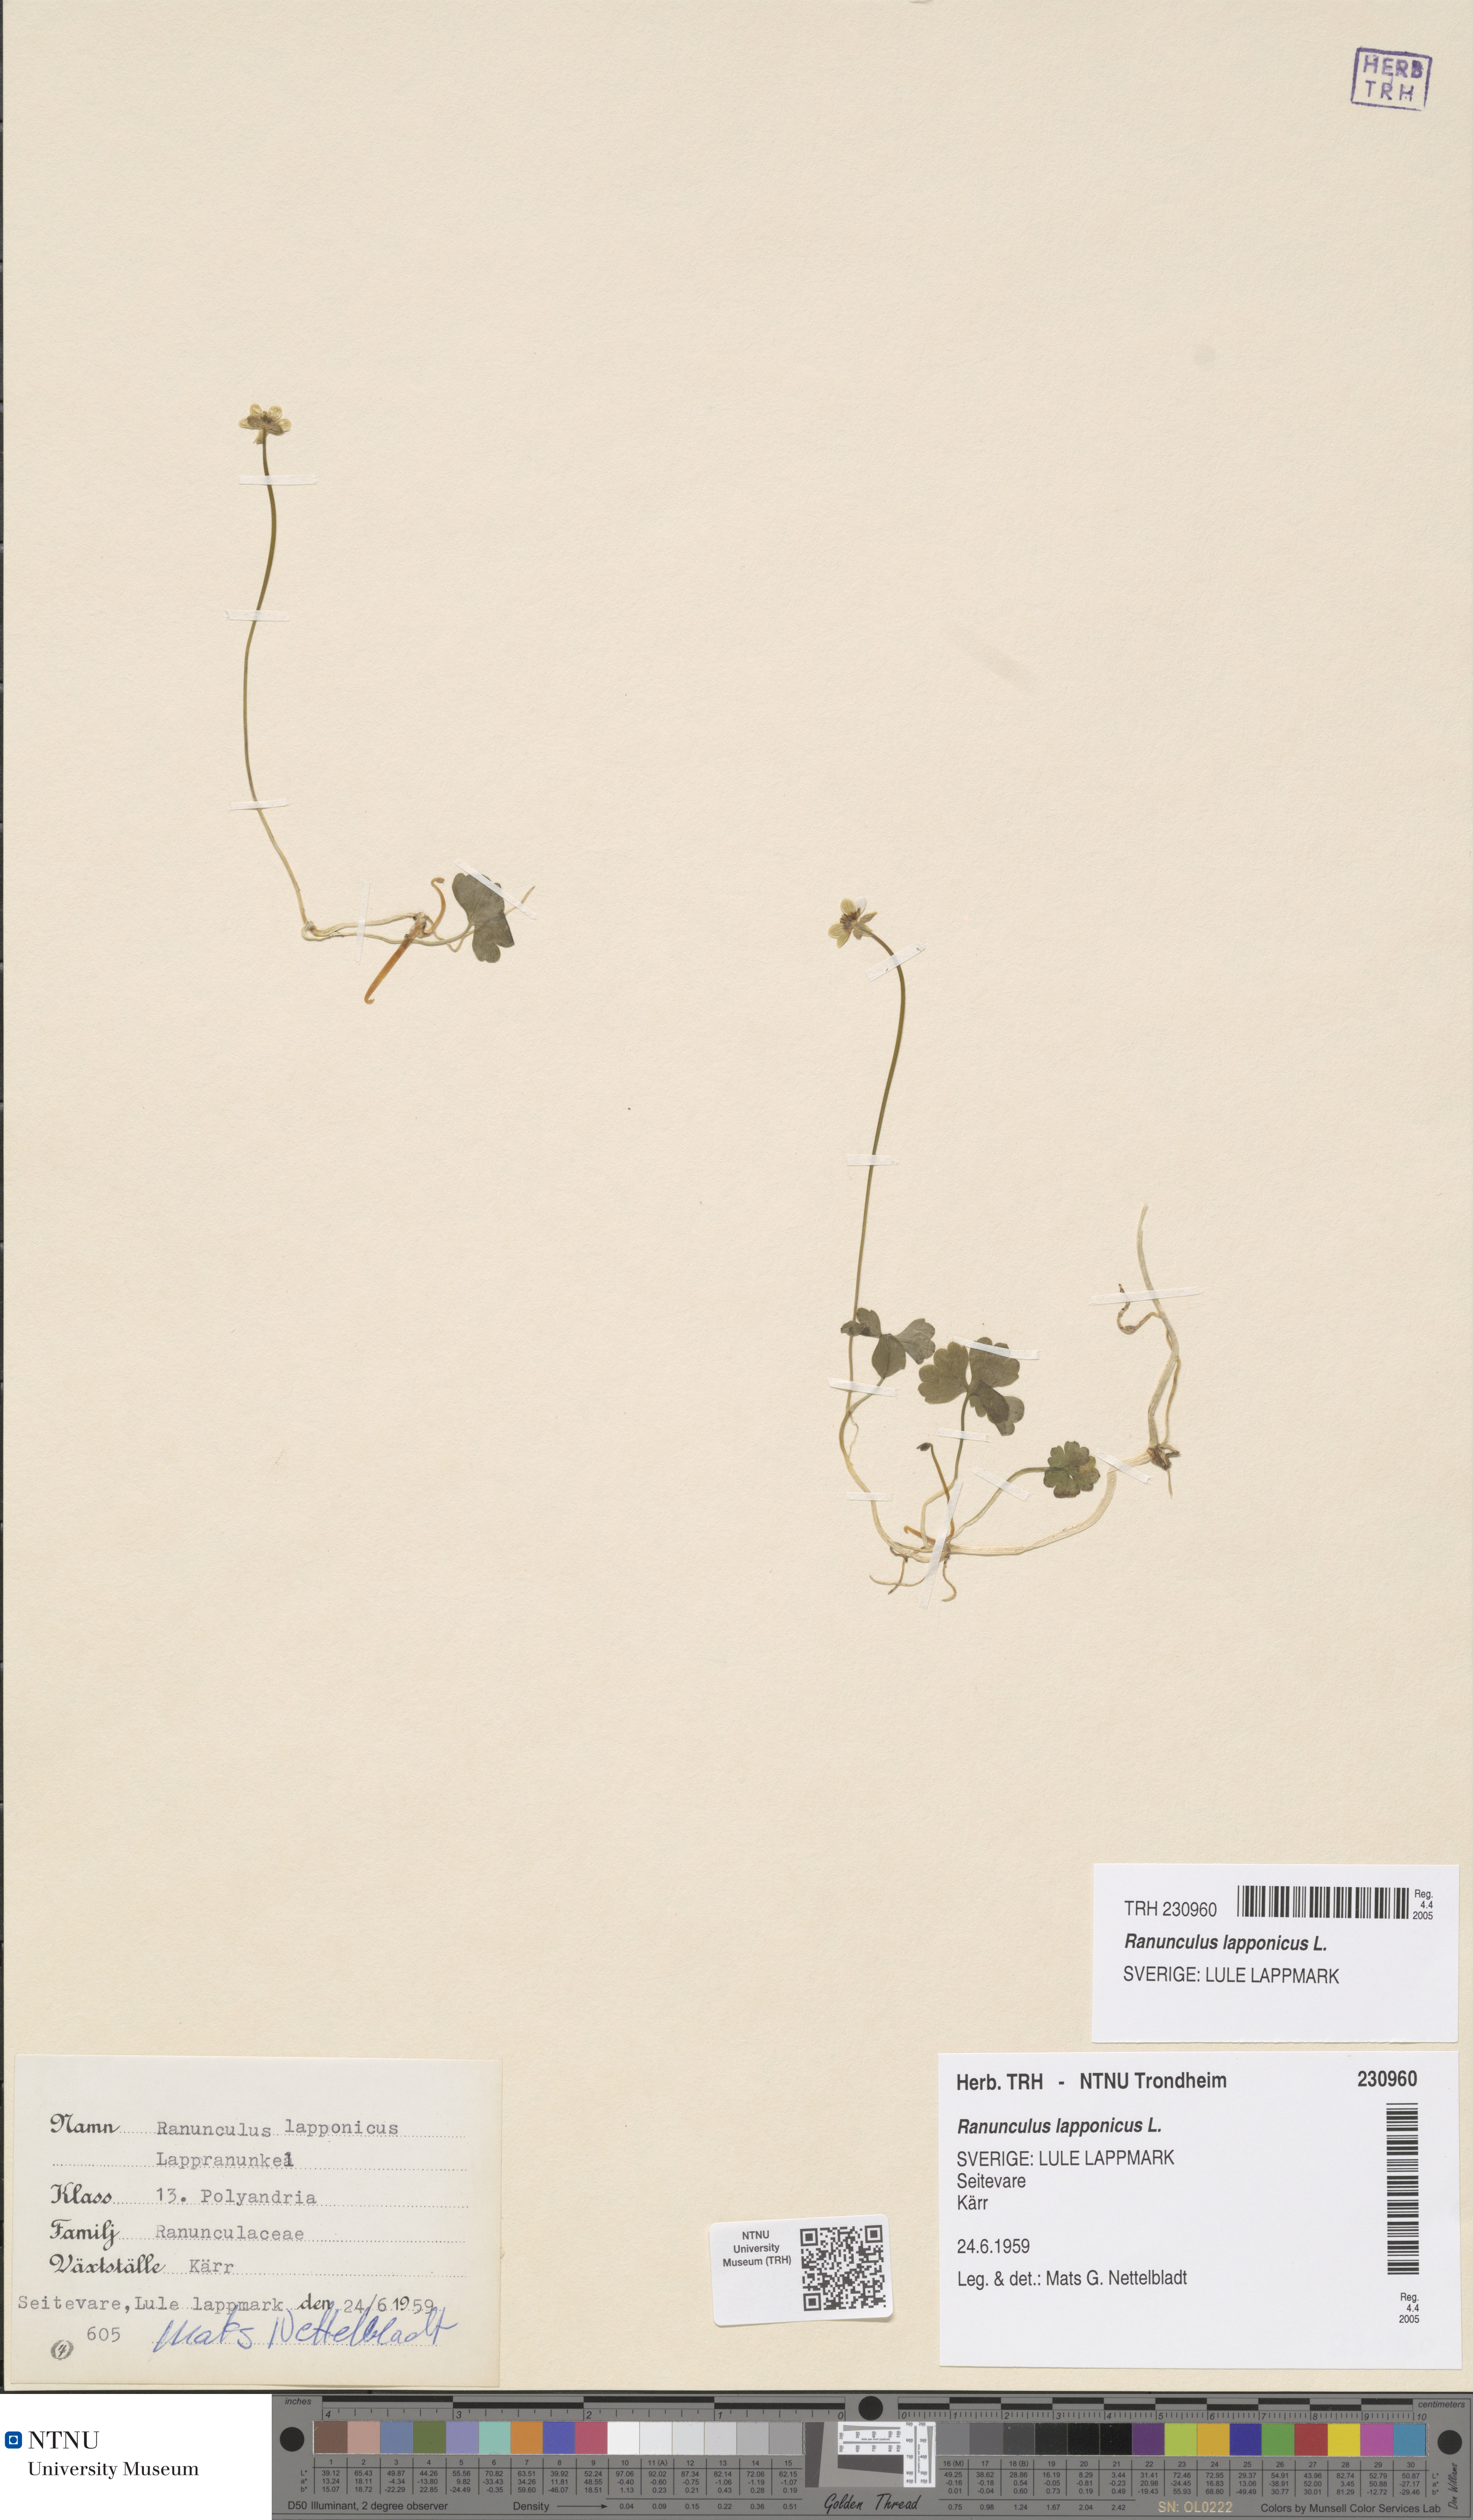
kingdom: Plantae
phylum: Tracheophyta
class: Magnoliopsida
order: Ranunculales
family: Ranunculaceae
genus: Coptidium
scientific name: Coptidium lapponicum
